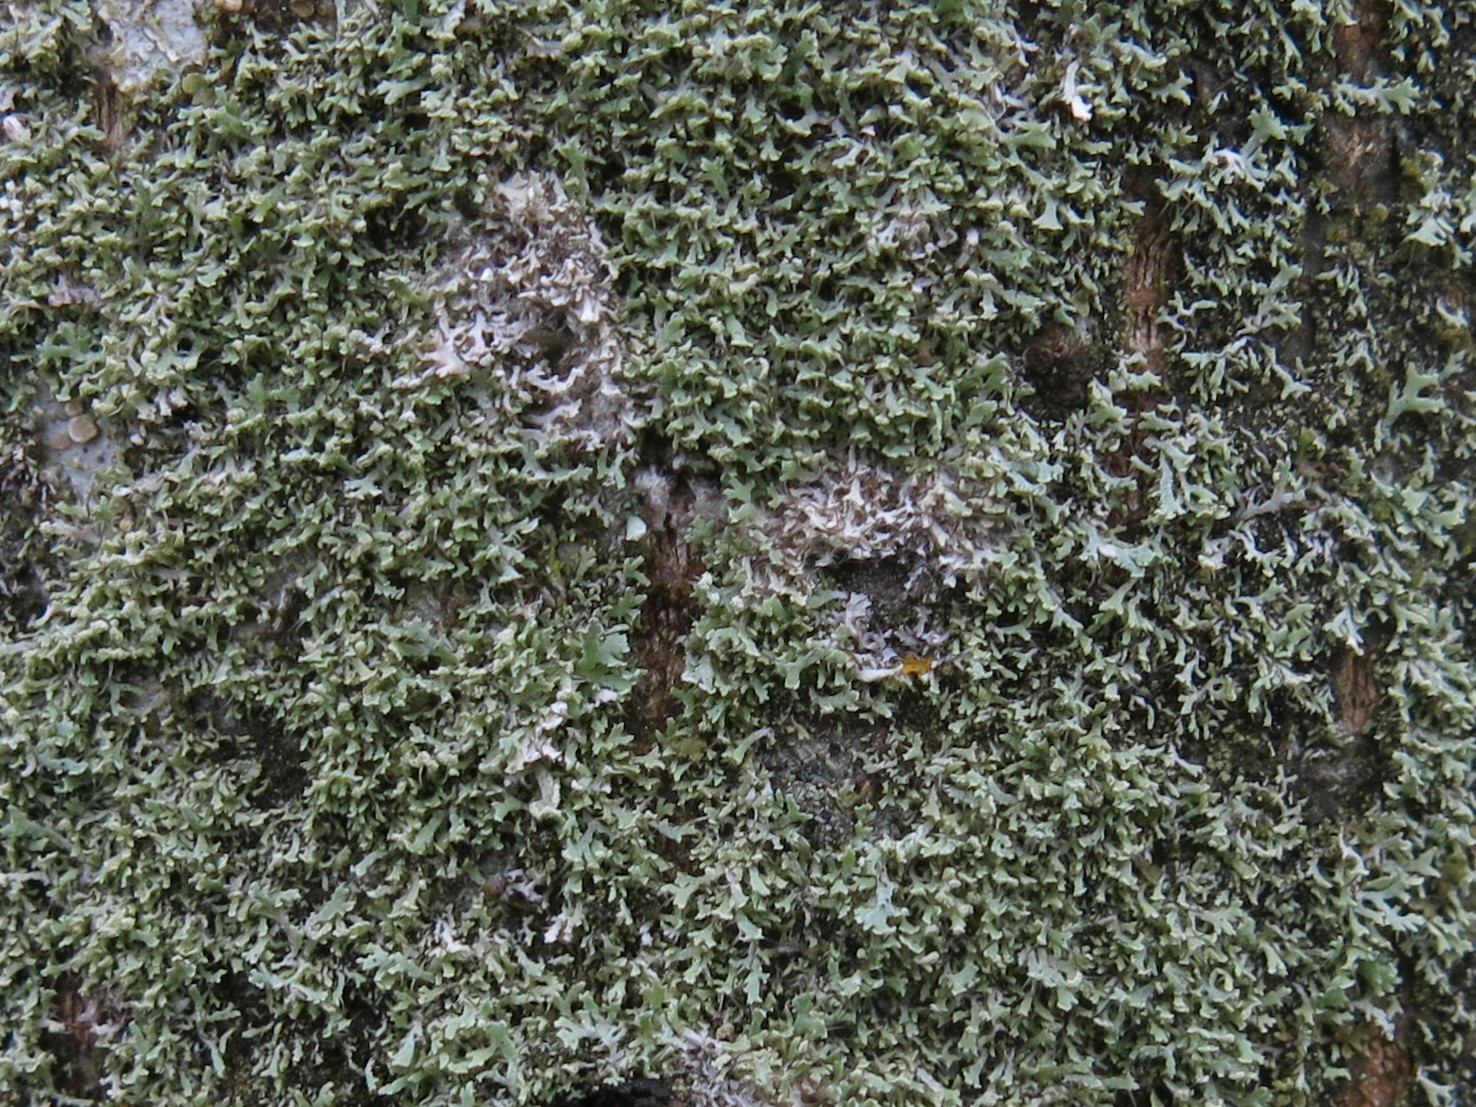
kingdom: Fungi
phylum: Ascomycota
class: Lecanoromycetes
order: Caliciales
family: Physciaceae
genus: Physcia
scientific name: Physcia tenella
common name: spæd rosetlav
